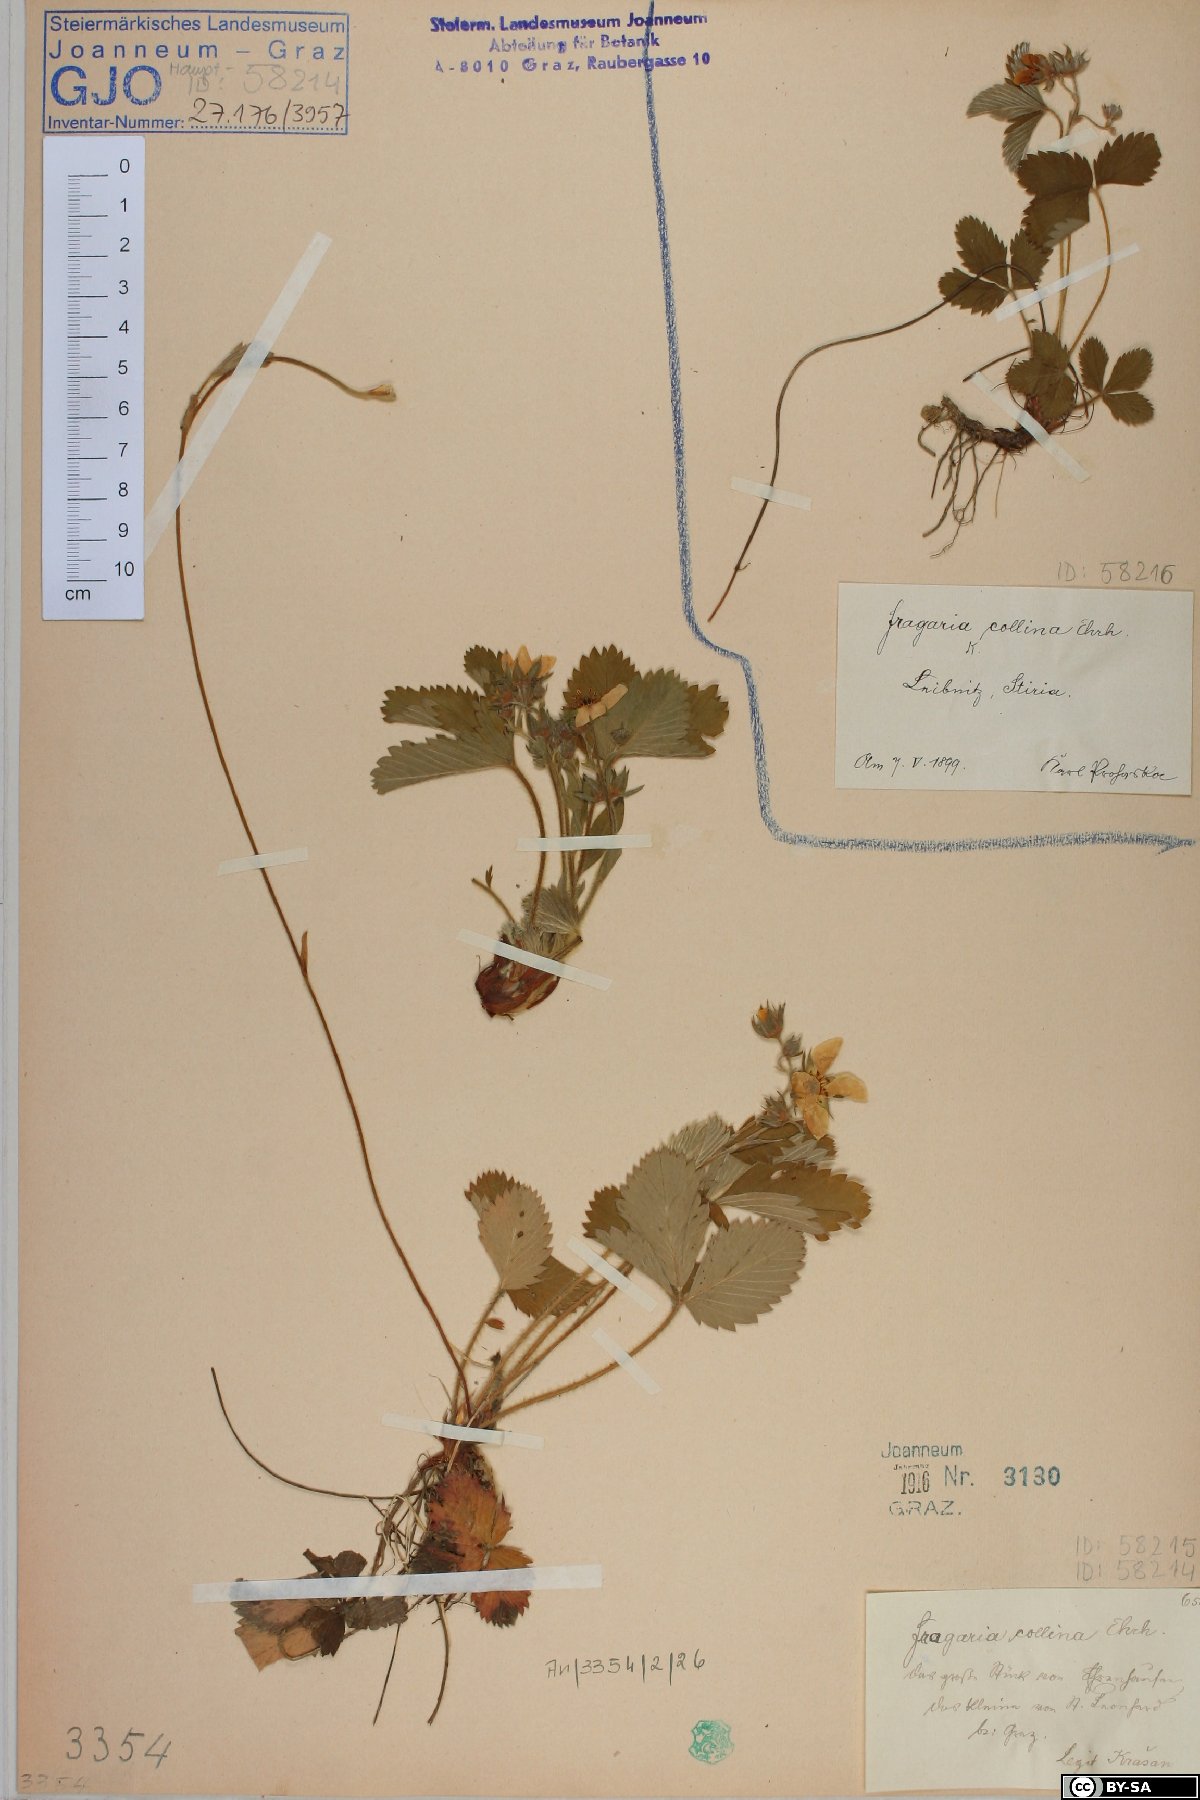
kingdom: Plantae
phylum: Tracheophyta
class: Magnoliopsida
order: Rosales
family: Rosaceae
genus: Fragaria
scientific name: Fragaria viridis
